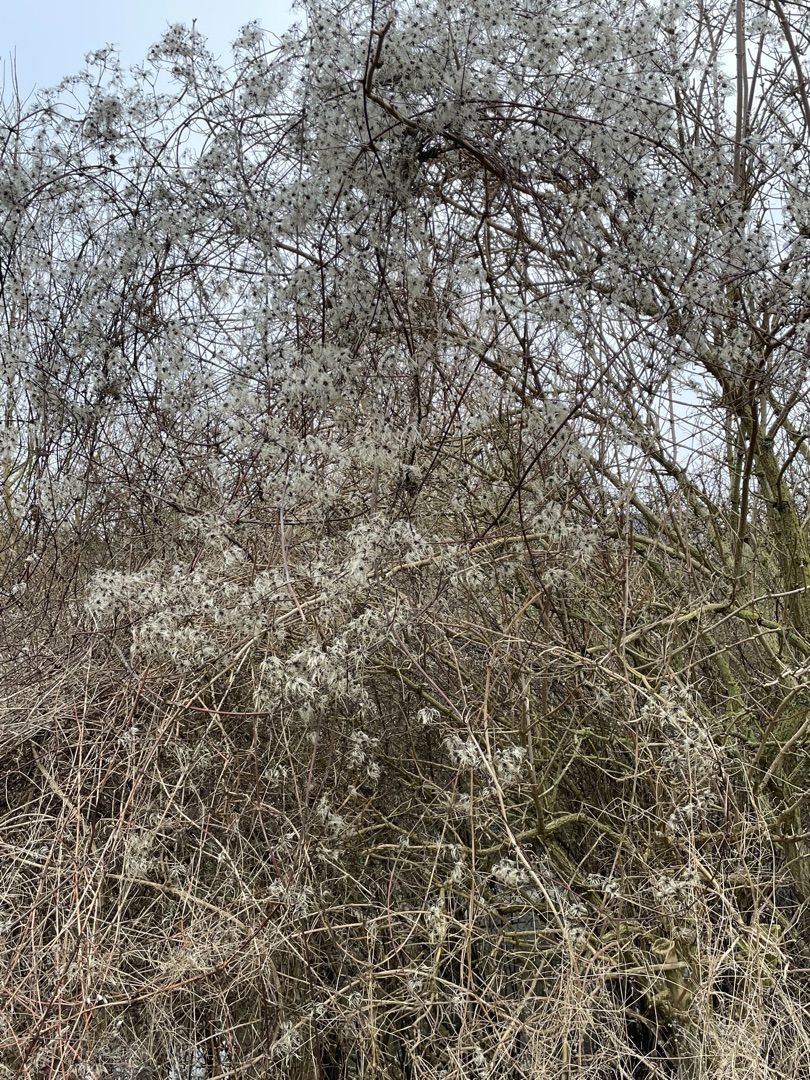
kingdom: Plantae
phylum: Tracheophyta
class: Magnoliopsida
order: Ranunculales
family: Ranunculaceae
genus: Clematis
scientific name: Clematis vitalba
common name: Skovranke
